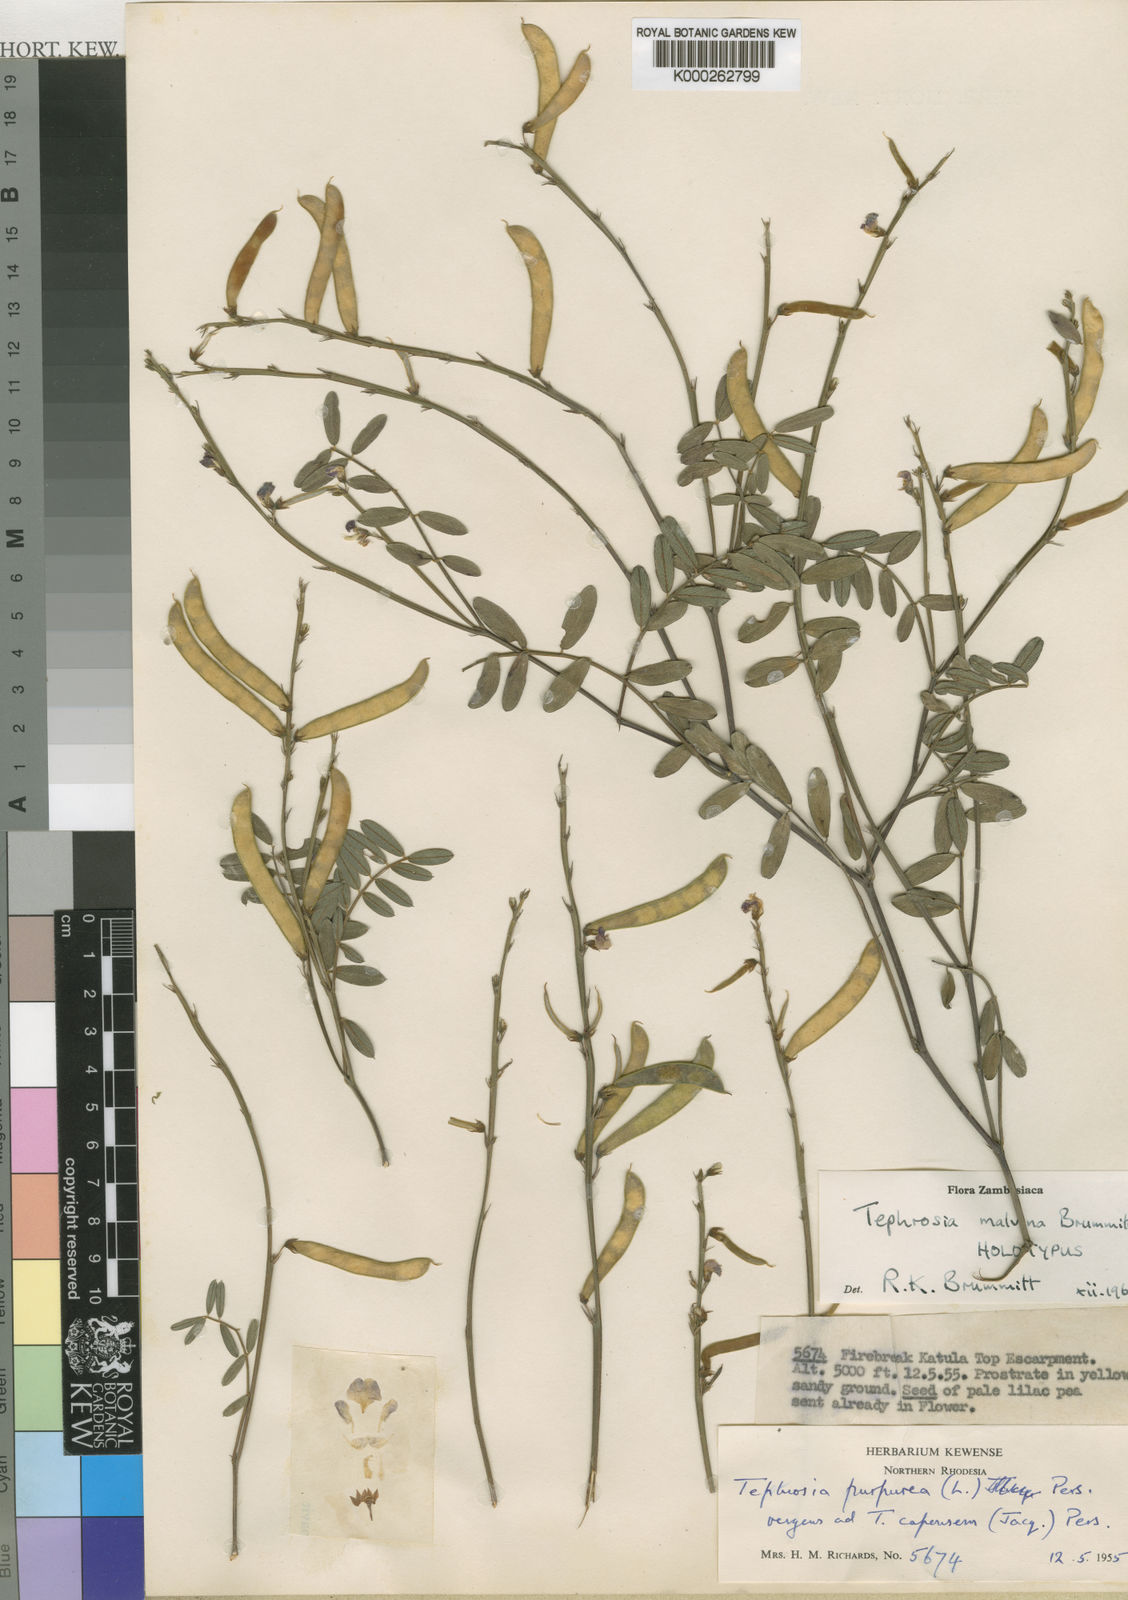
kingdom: Plantae
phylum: Tracheophyta
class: Magnoliopsida
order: Fabales
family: Fabaceae
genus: Tephrosia
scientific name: Tephrosia malvina
